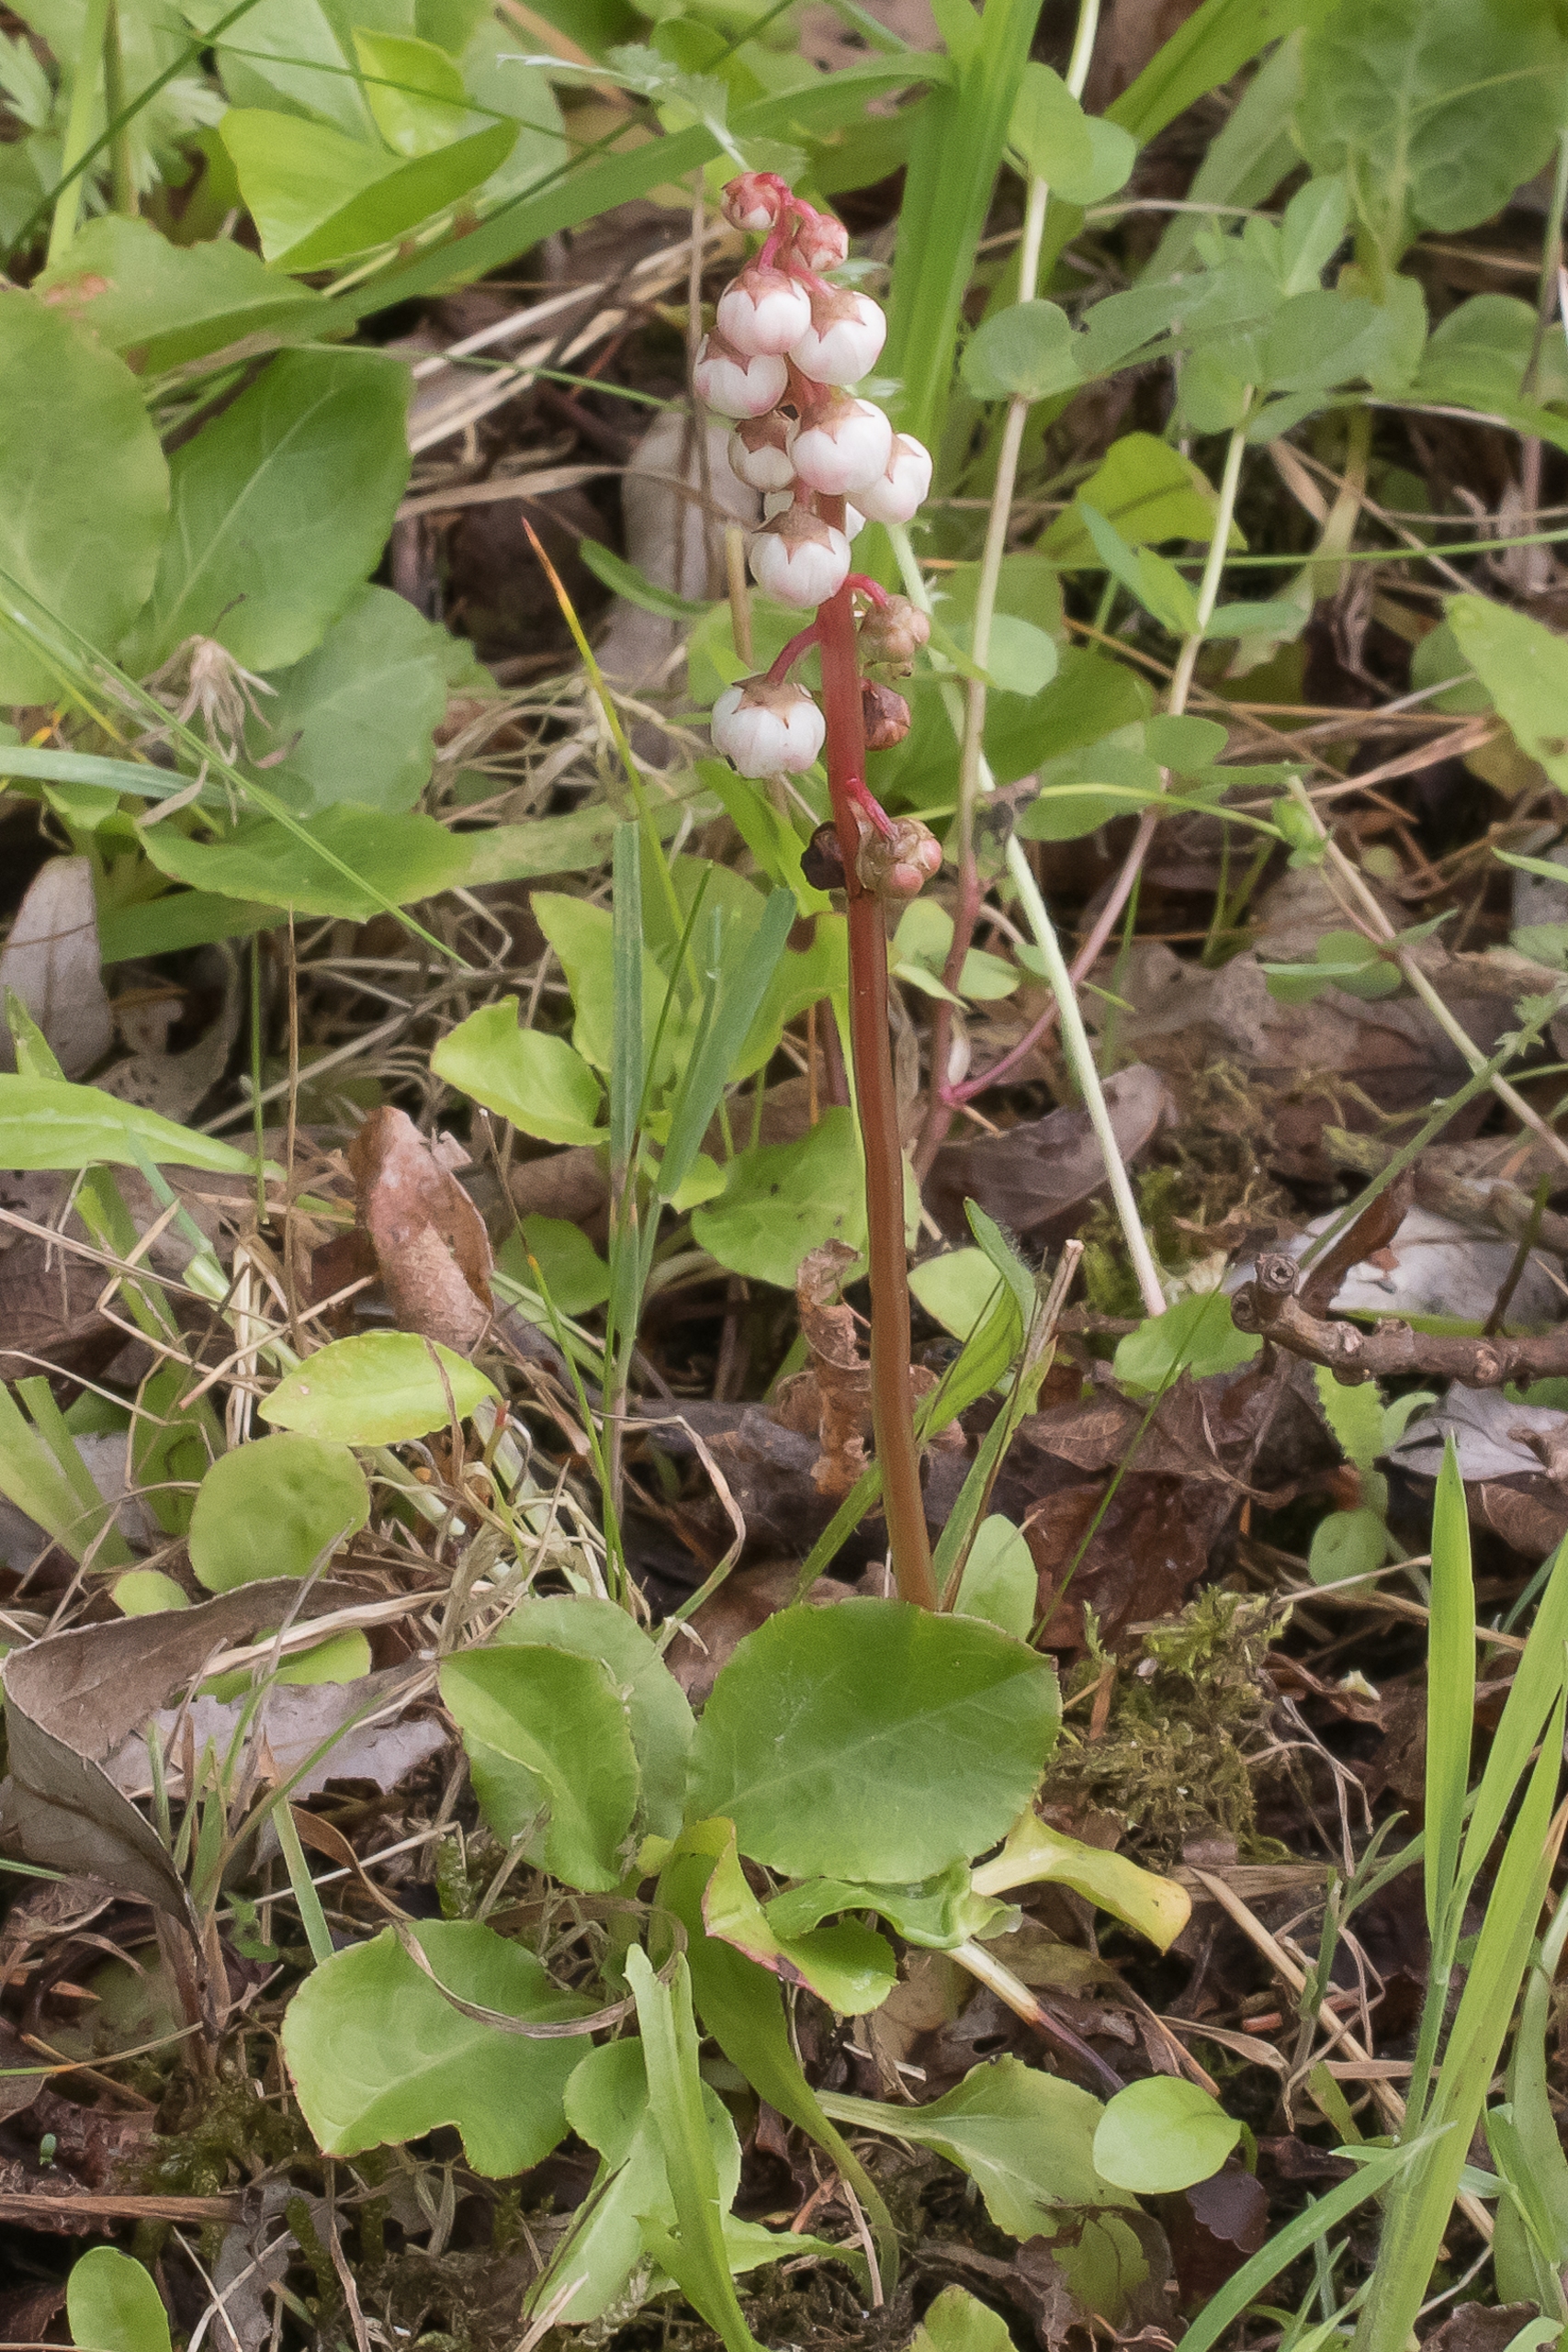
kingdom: Plantae
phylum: Tracheophyta
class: Magnoliopsida
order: Ericales
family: Ericaceae
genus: Pyrola
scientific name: Pyrola minor
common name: Liden vintergrøn
